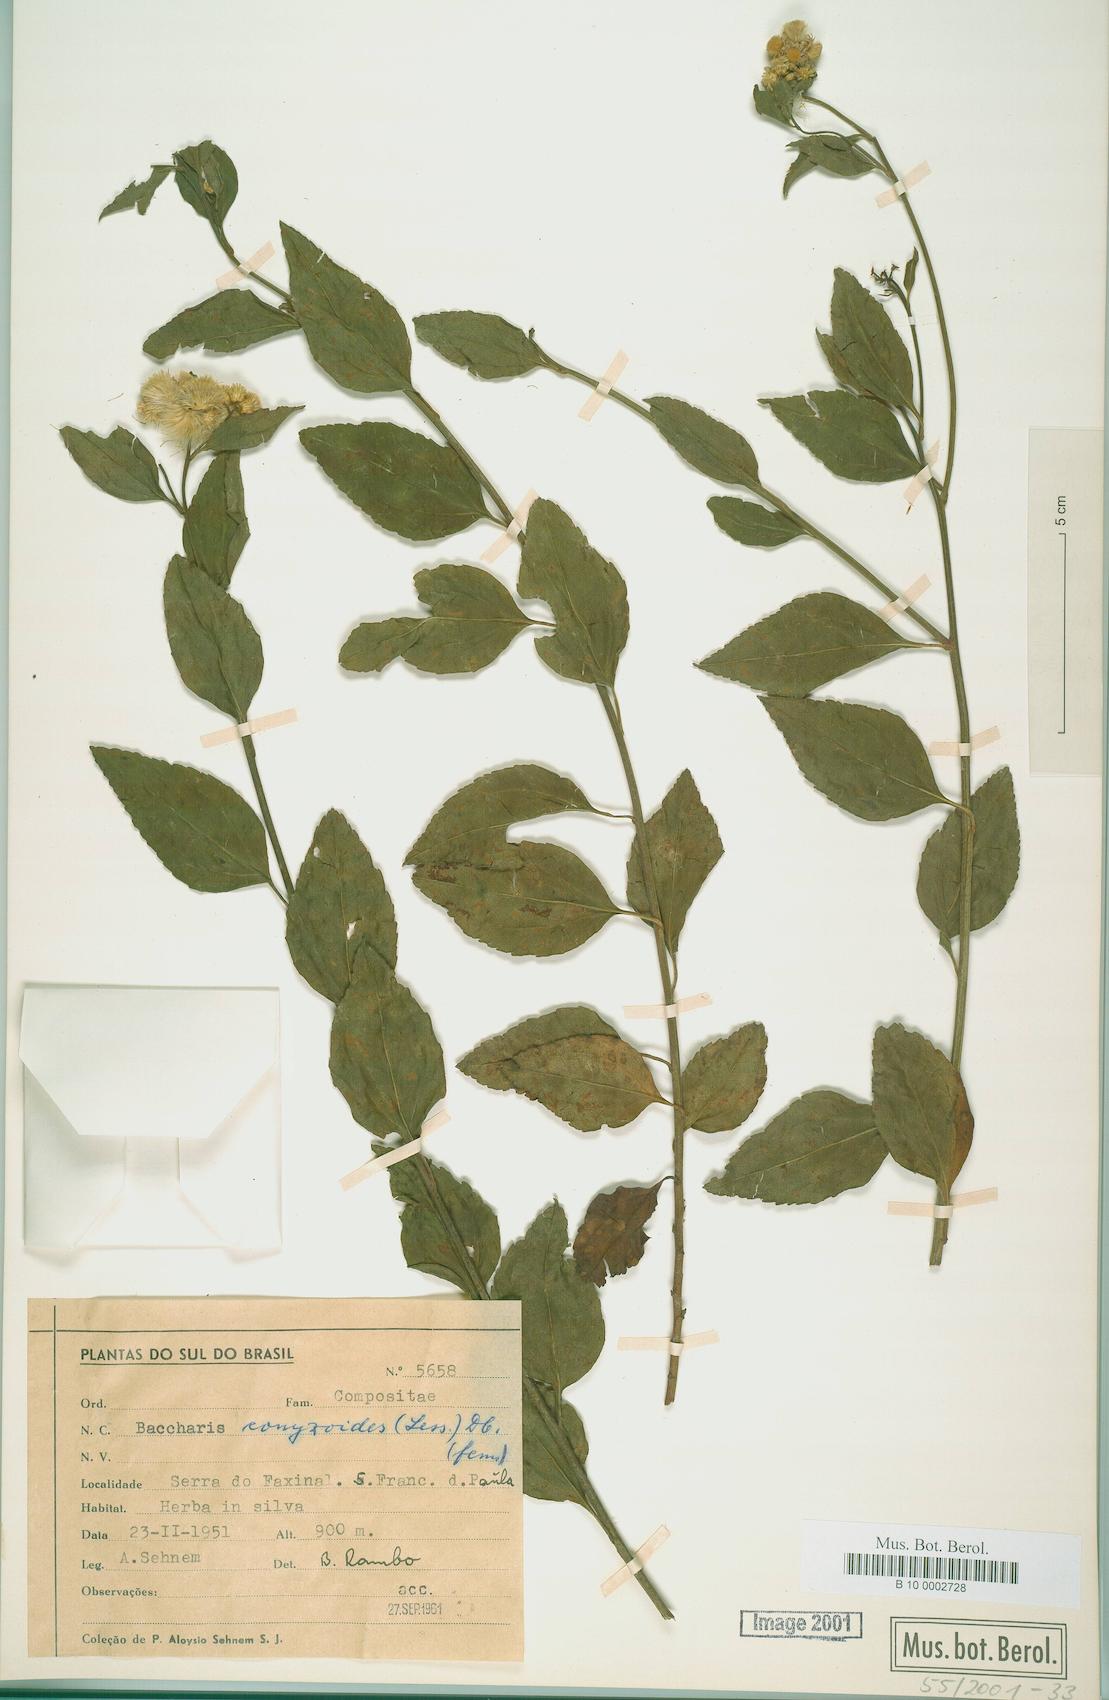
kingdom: Plantae
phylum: Tracheophyta
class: Magnoliopsida
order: Asterales
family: Asteraceae
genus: Baccharis
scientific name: Baccharis conyzoides
